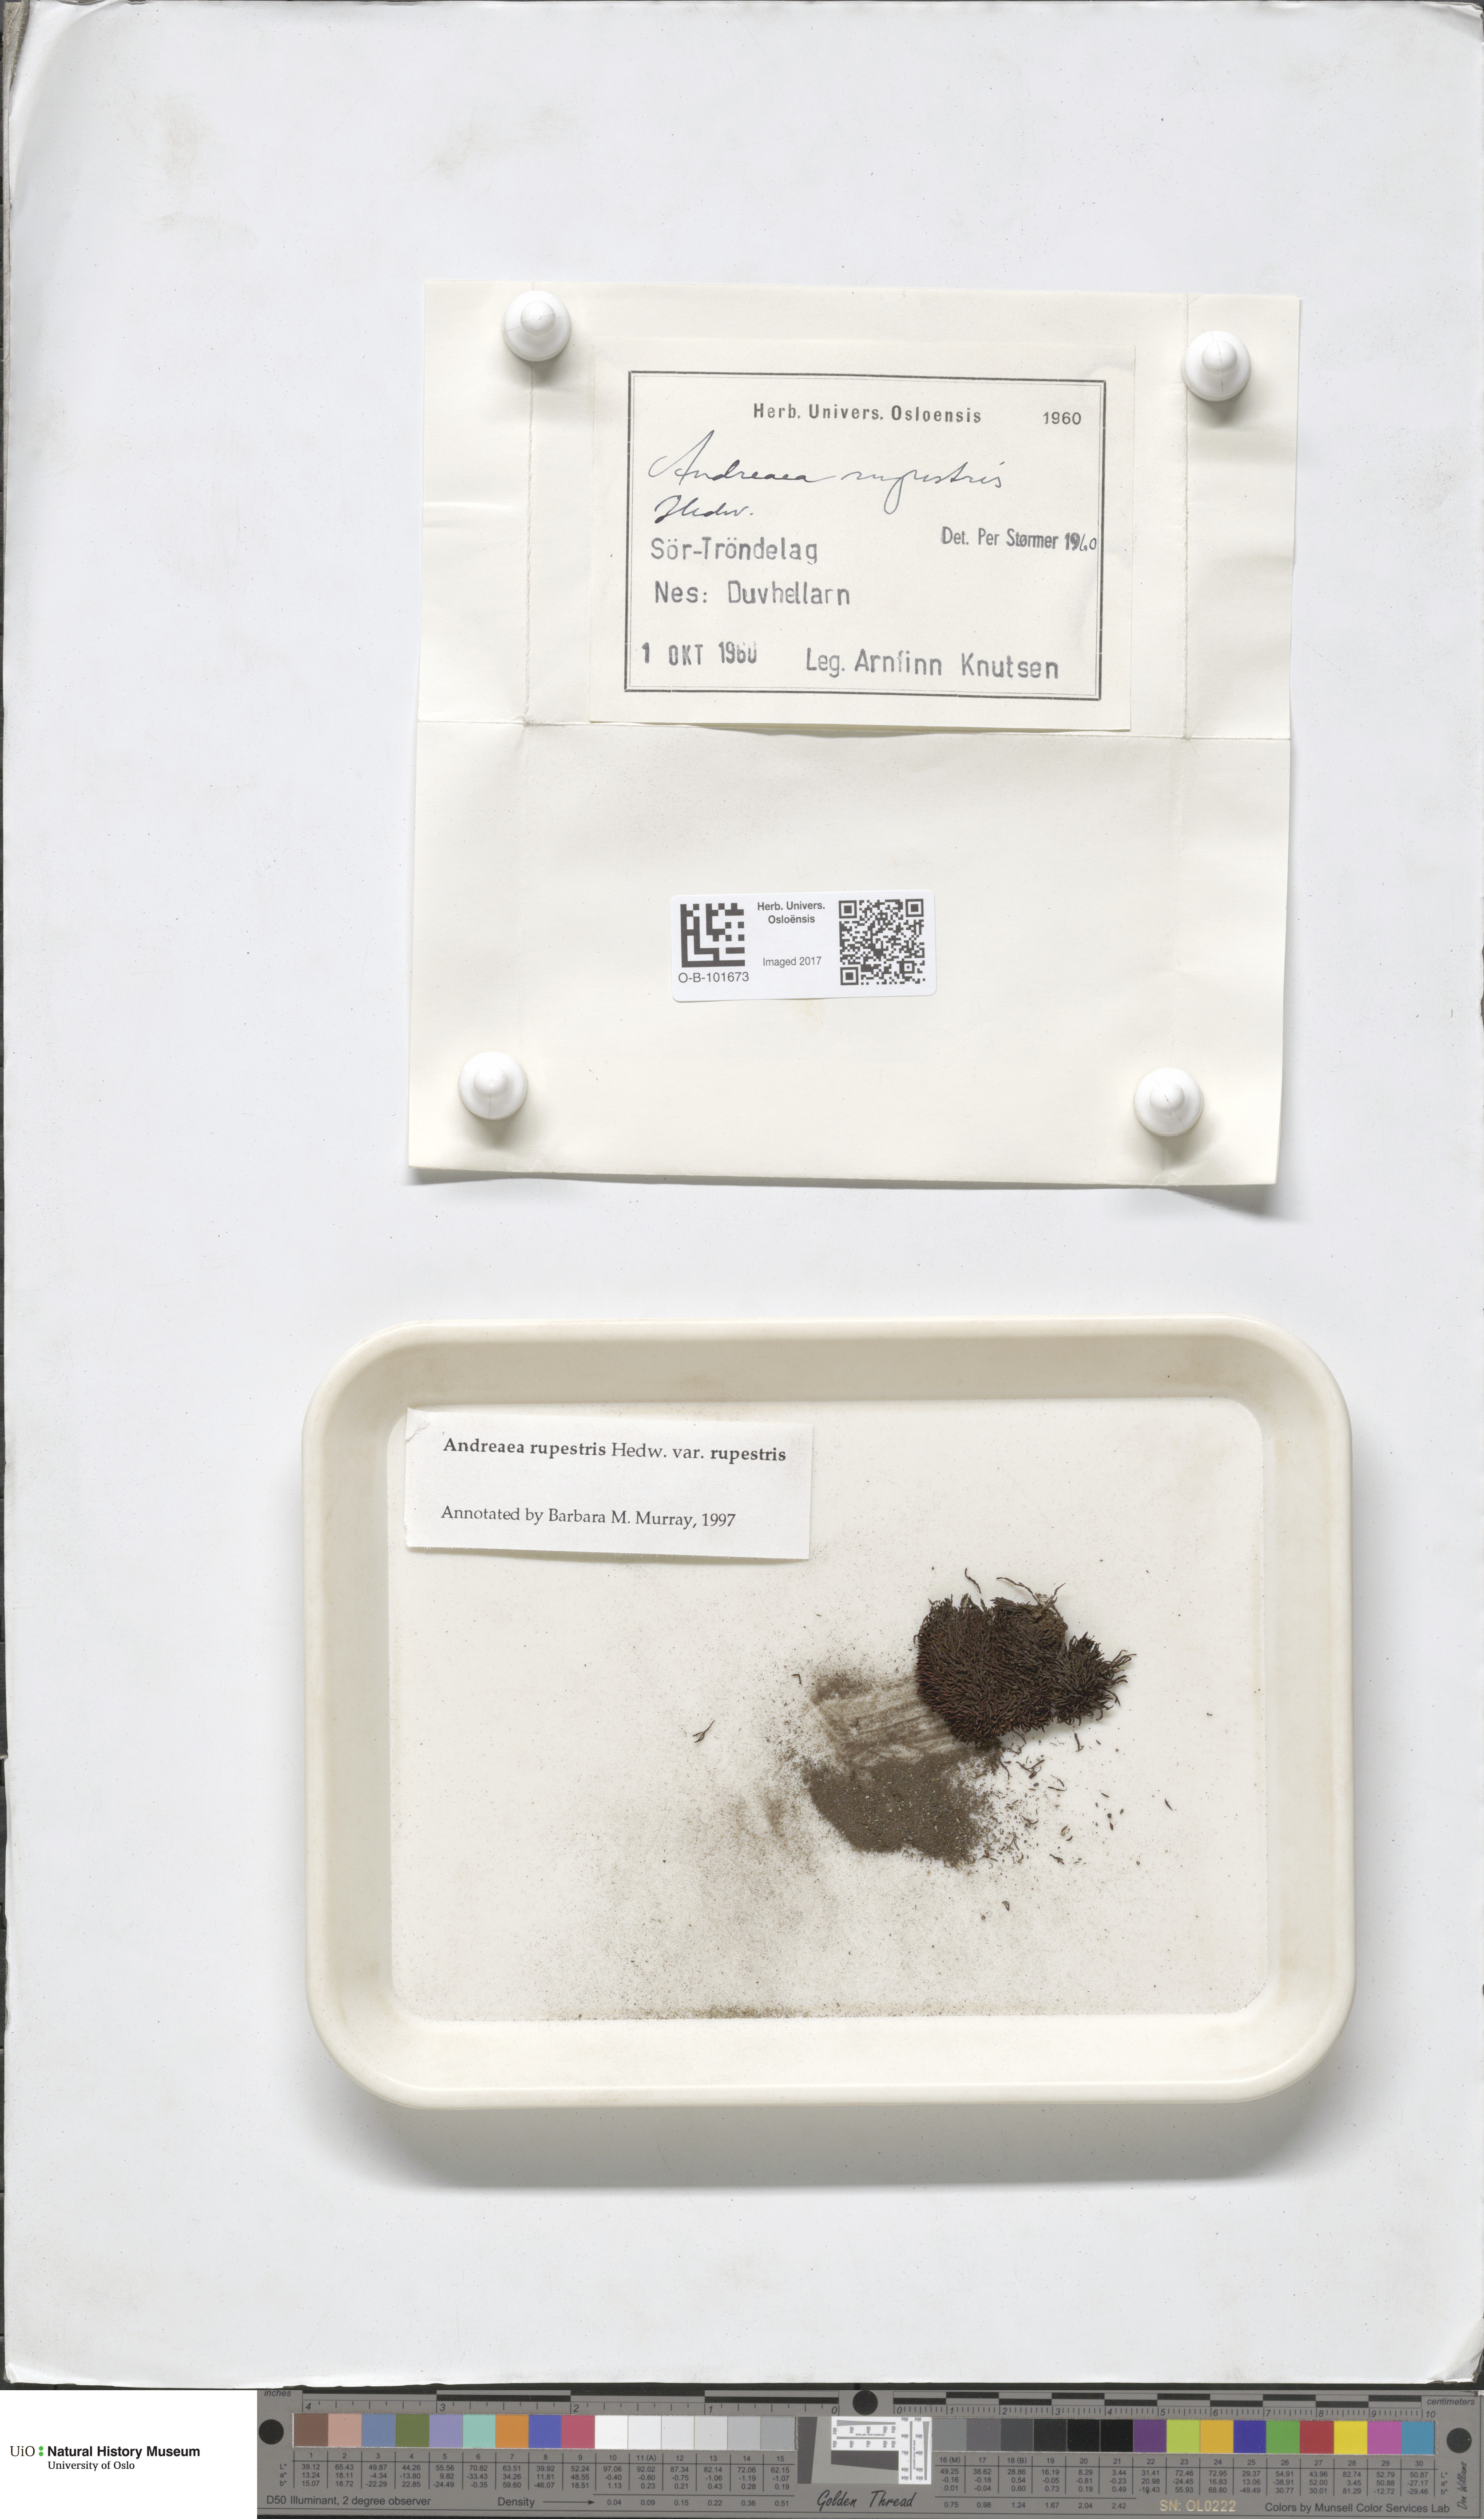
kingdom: Plantae
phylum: Bryophyta
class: Andreaeopsida
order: Andreaeales
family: Andreaeaceae
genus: Andreaea
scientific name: Andreaea rupestris
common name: Black rock moss
